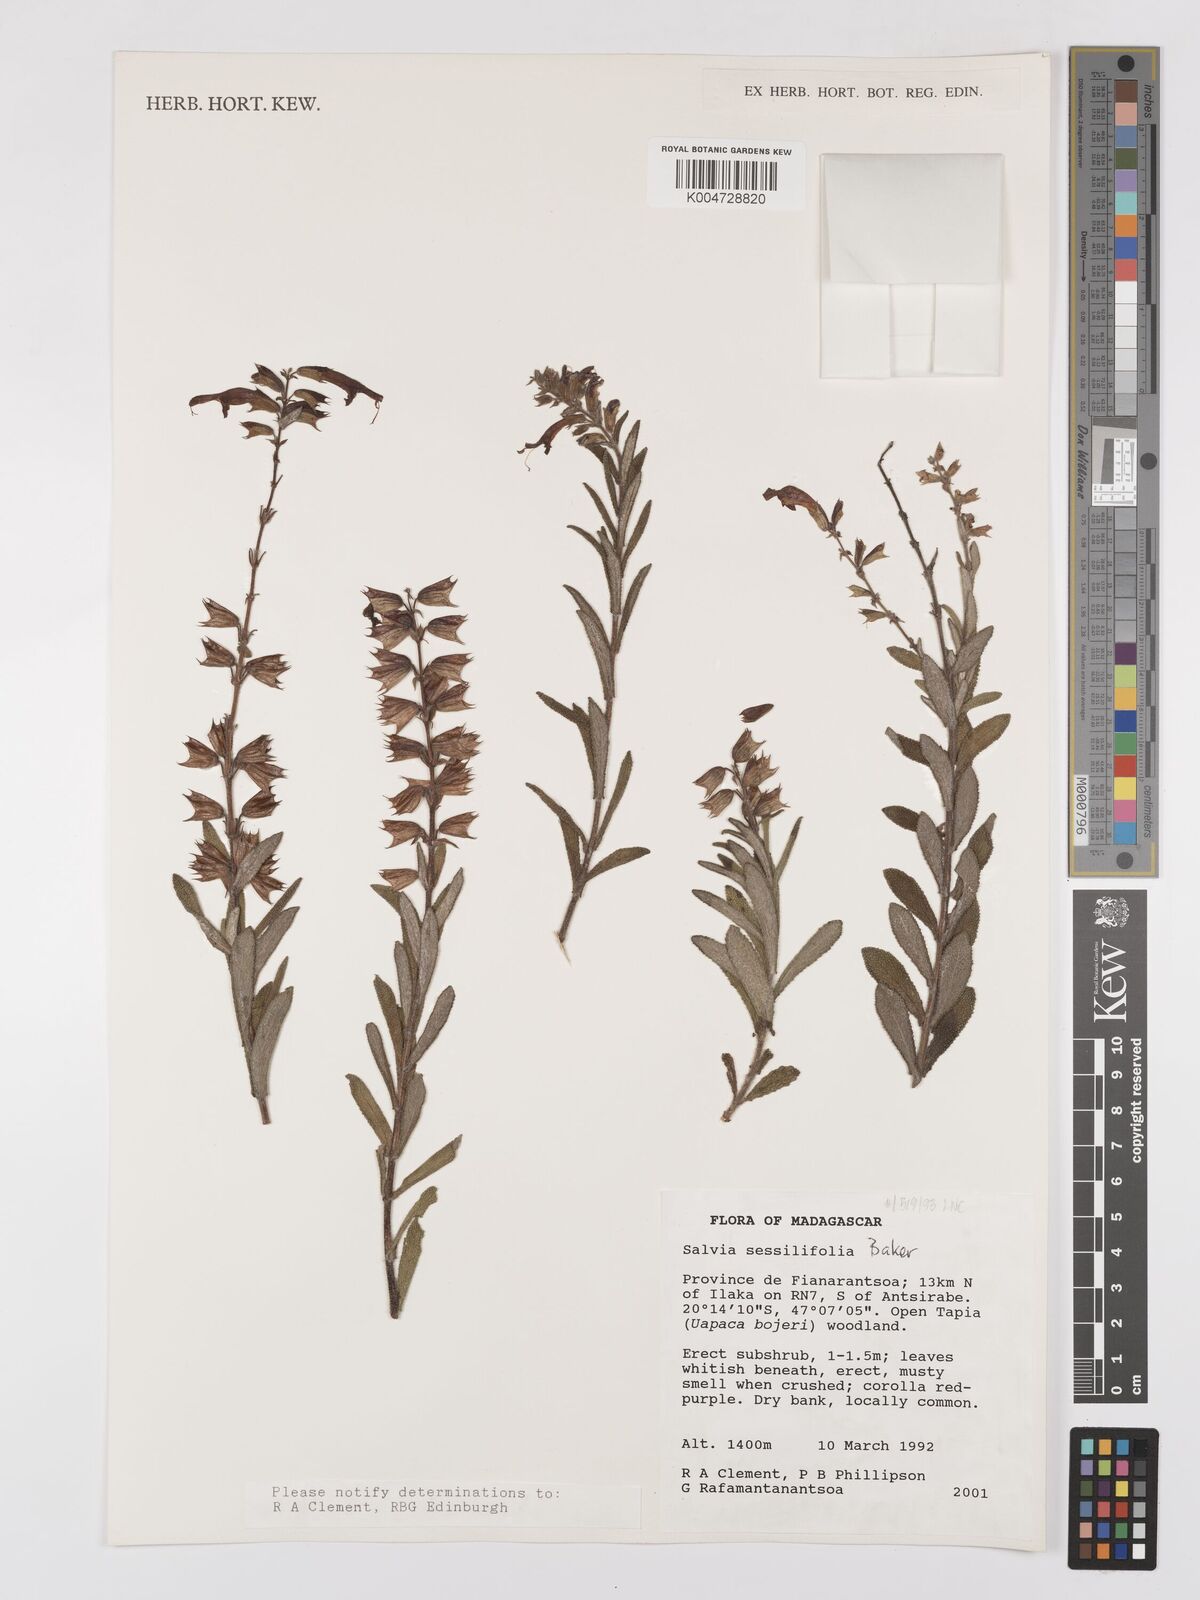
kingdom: Plantae
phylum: Tracheophyta
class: Magnoliopsida
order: Lamiales
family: Lamiaceae
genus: Salvia
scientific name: Salvia sessilifolia
